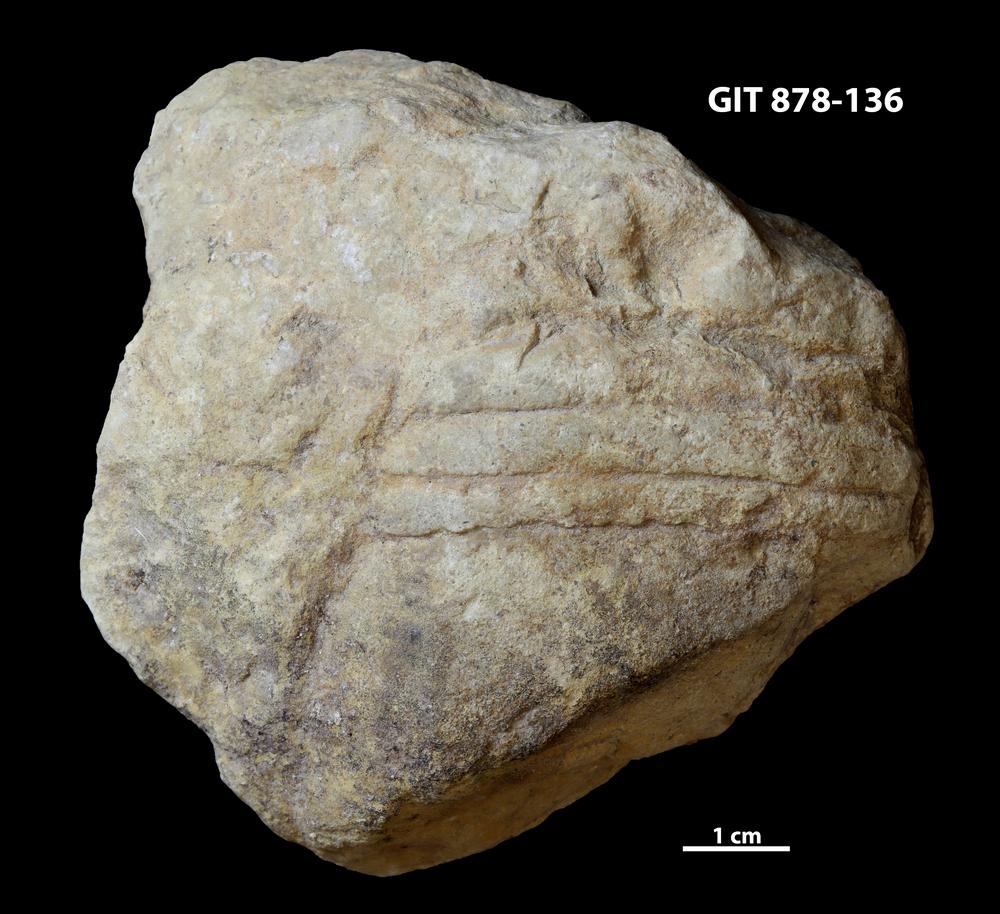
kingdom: Animalia
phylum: Mollusca
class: Cephalopoda
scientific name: Cephalopoda
